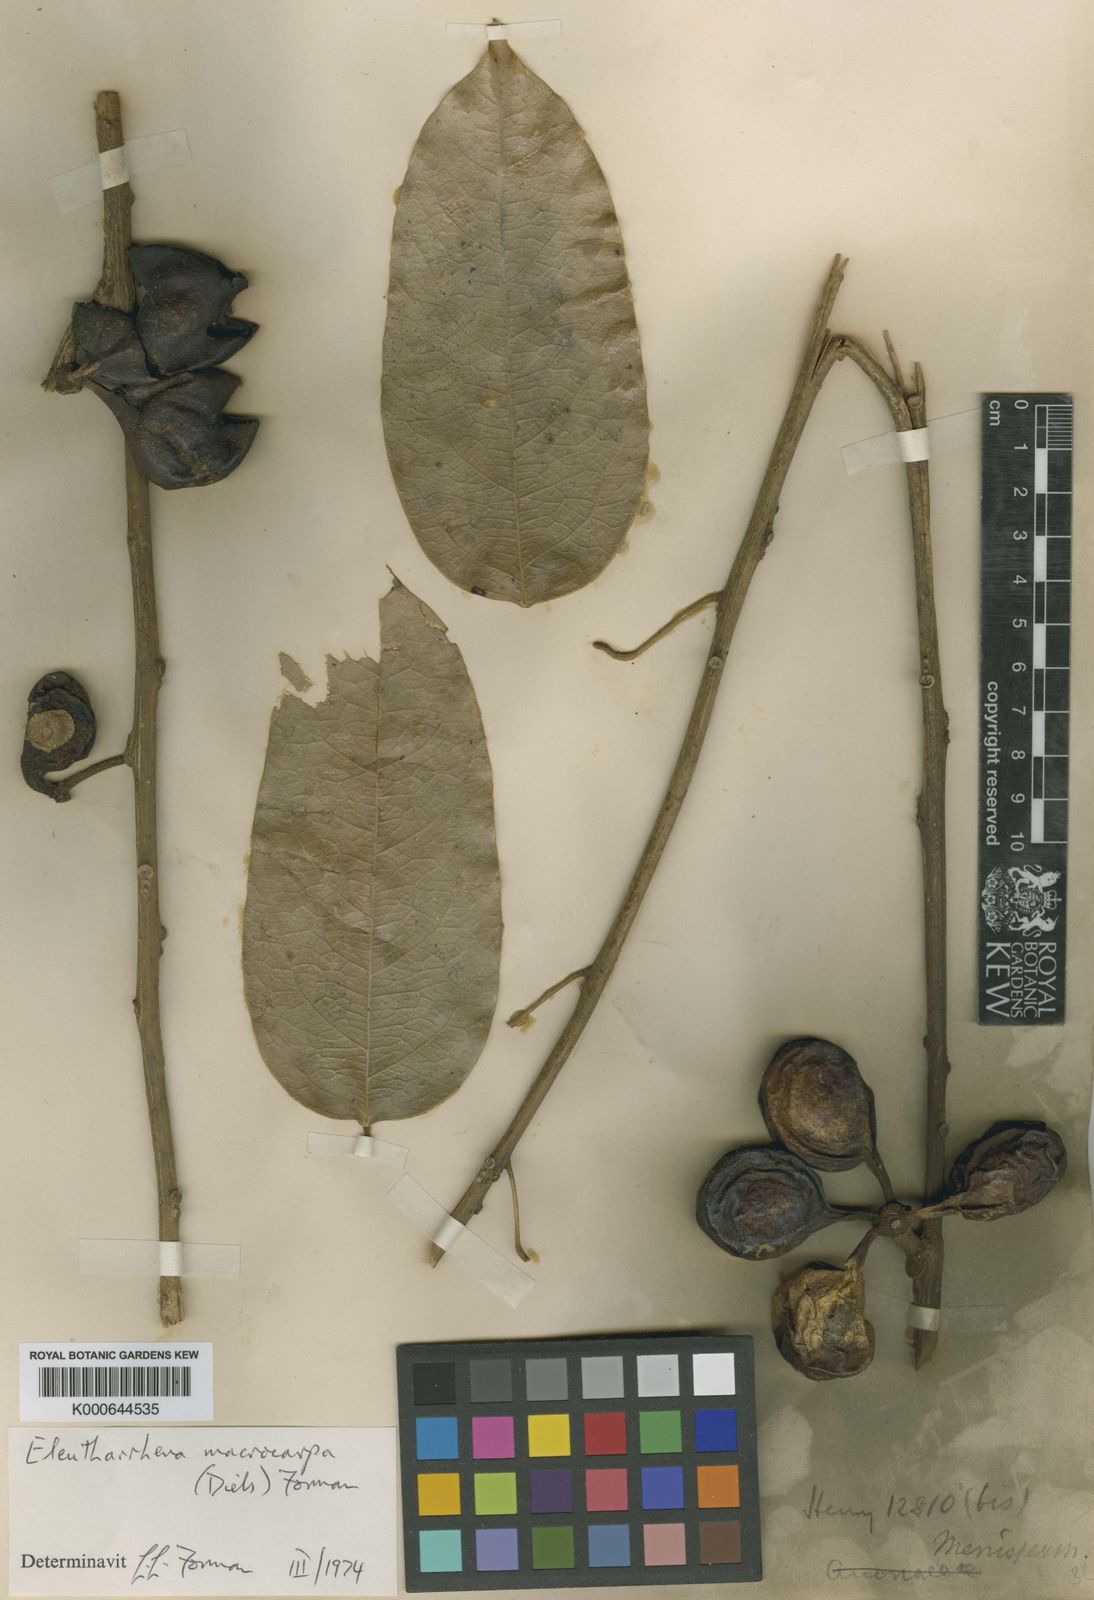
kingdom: Plantae
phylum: Tracheophyta
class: Magnoliopsida
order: Ranunculales
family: Menispermaceae
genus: Eleutharrhena
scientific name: Eleutharrhena
